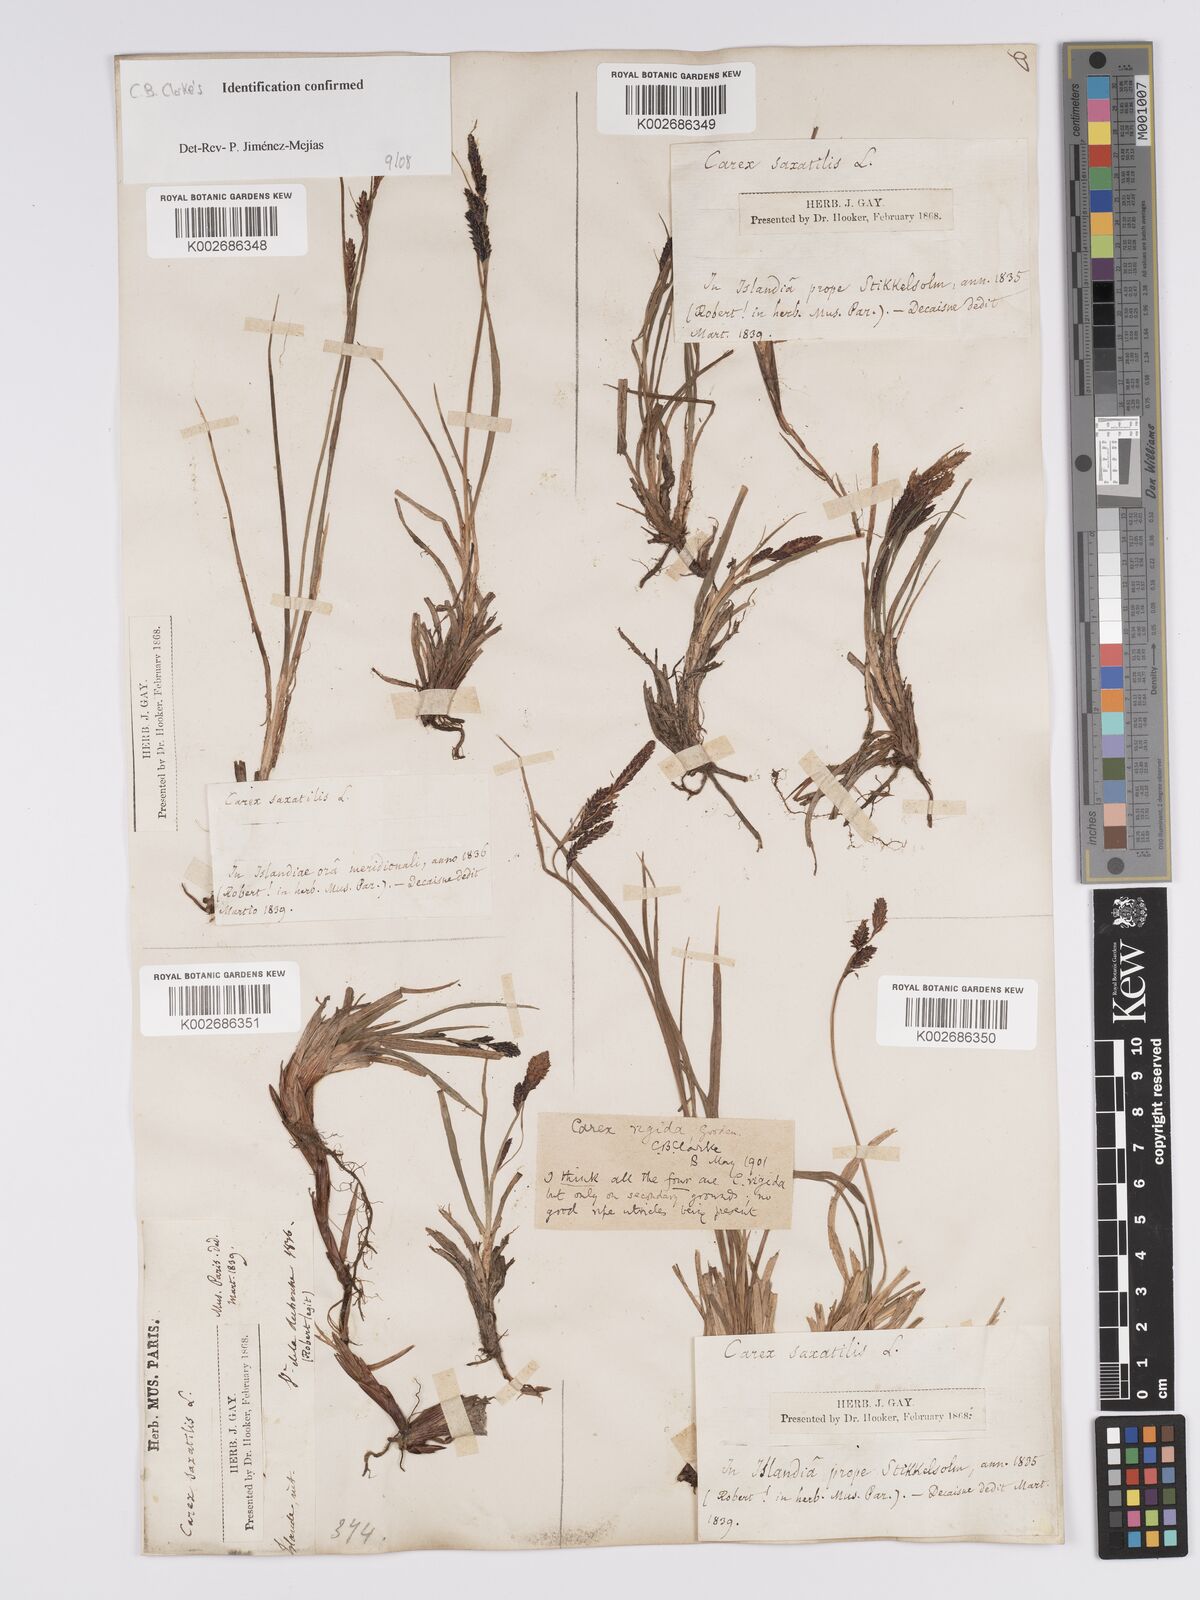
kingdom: Plantae
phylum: Tracheophyta
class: Liliopsida
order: Poales
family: Cyperaceae
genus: Carex
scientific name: Carex bigelowii
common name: Stiff sedge
